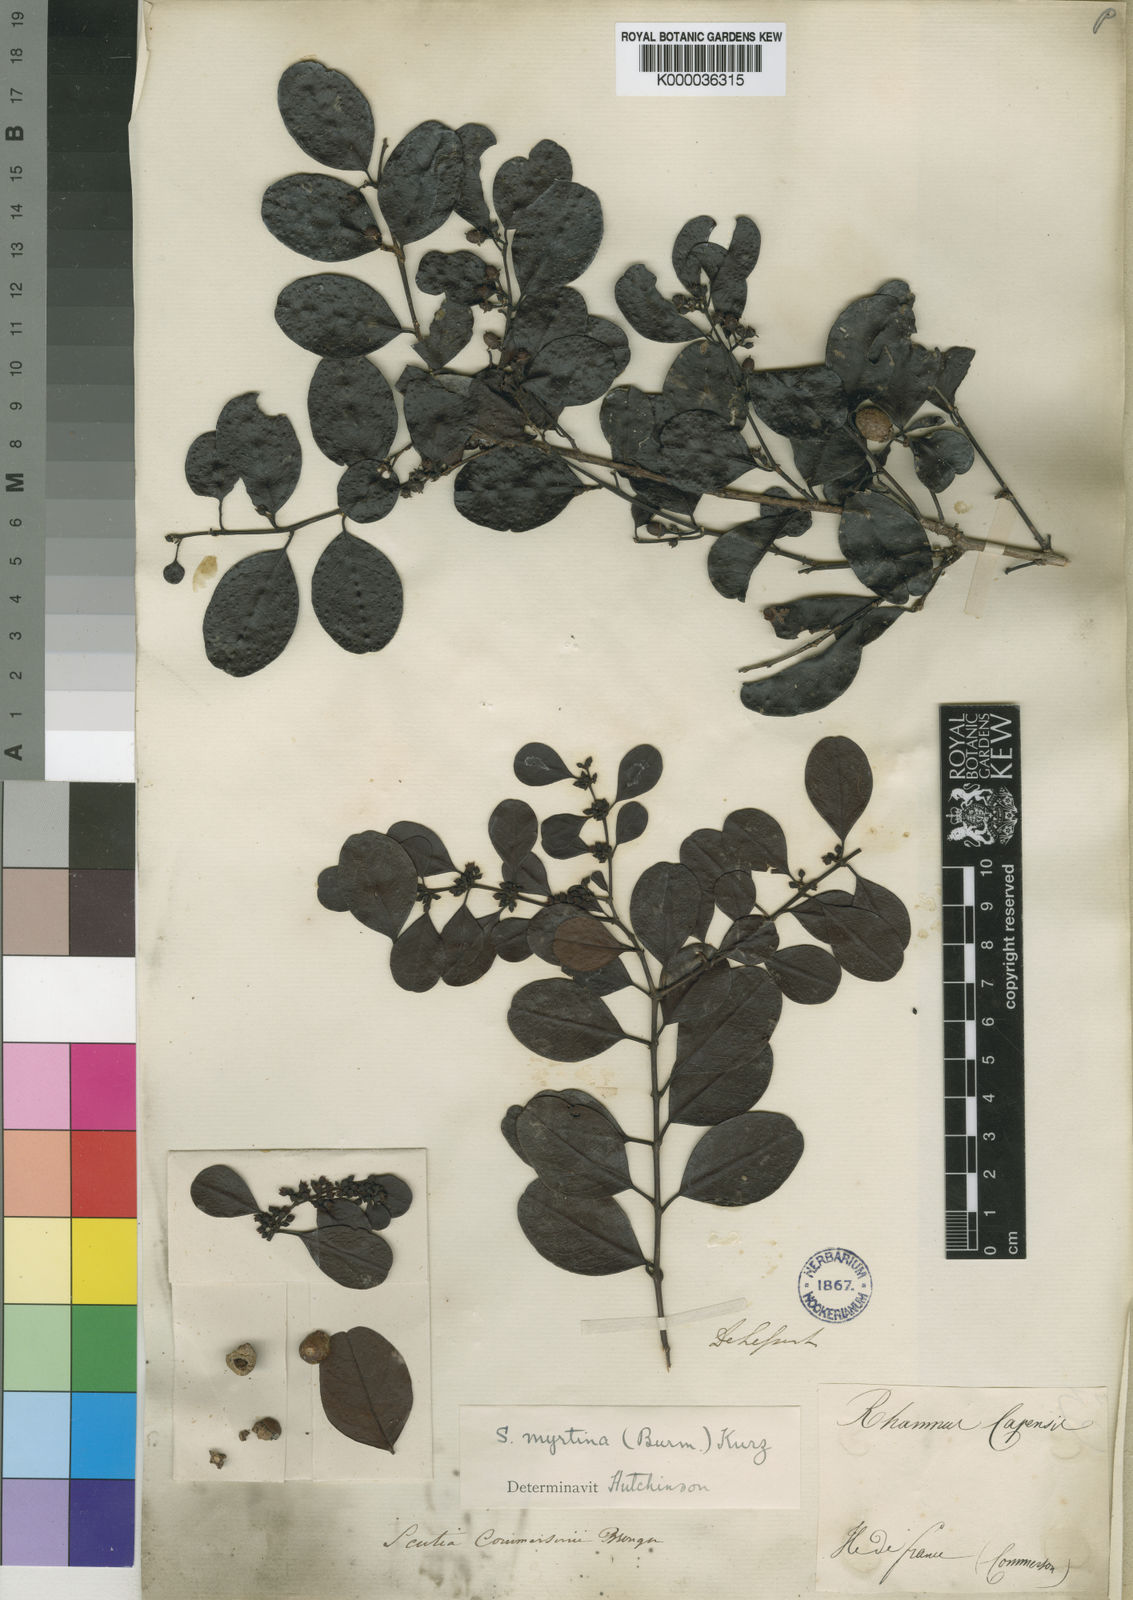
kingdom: Plantae
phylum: Tracheophyta
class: Magnoliopsida
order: Rosales
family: Rhamnaceae
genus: Scutia
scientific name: Scutia myrtina
